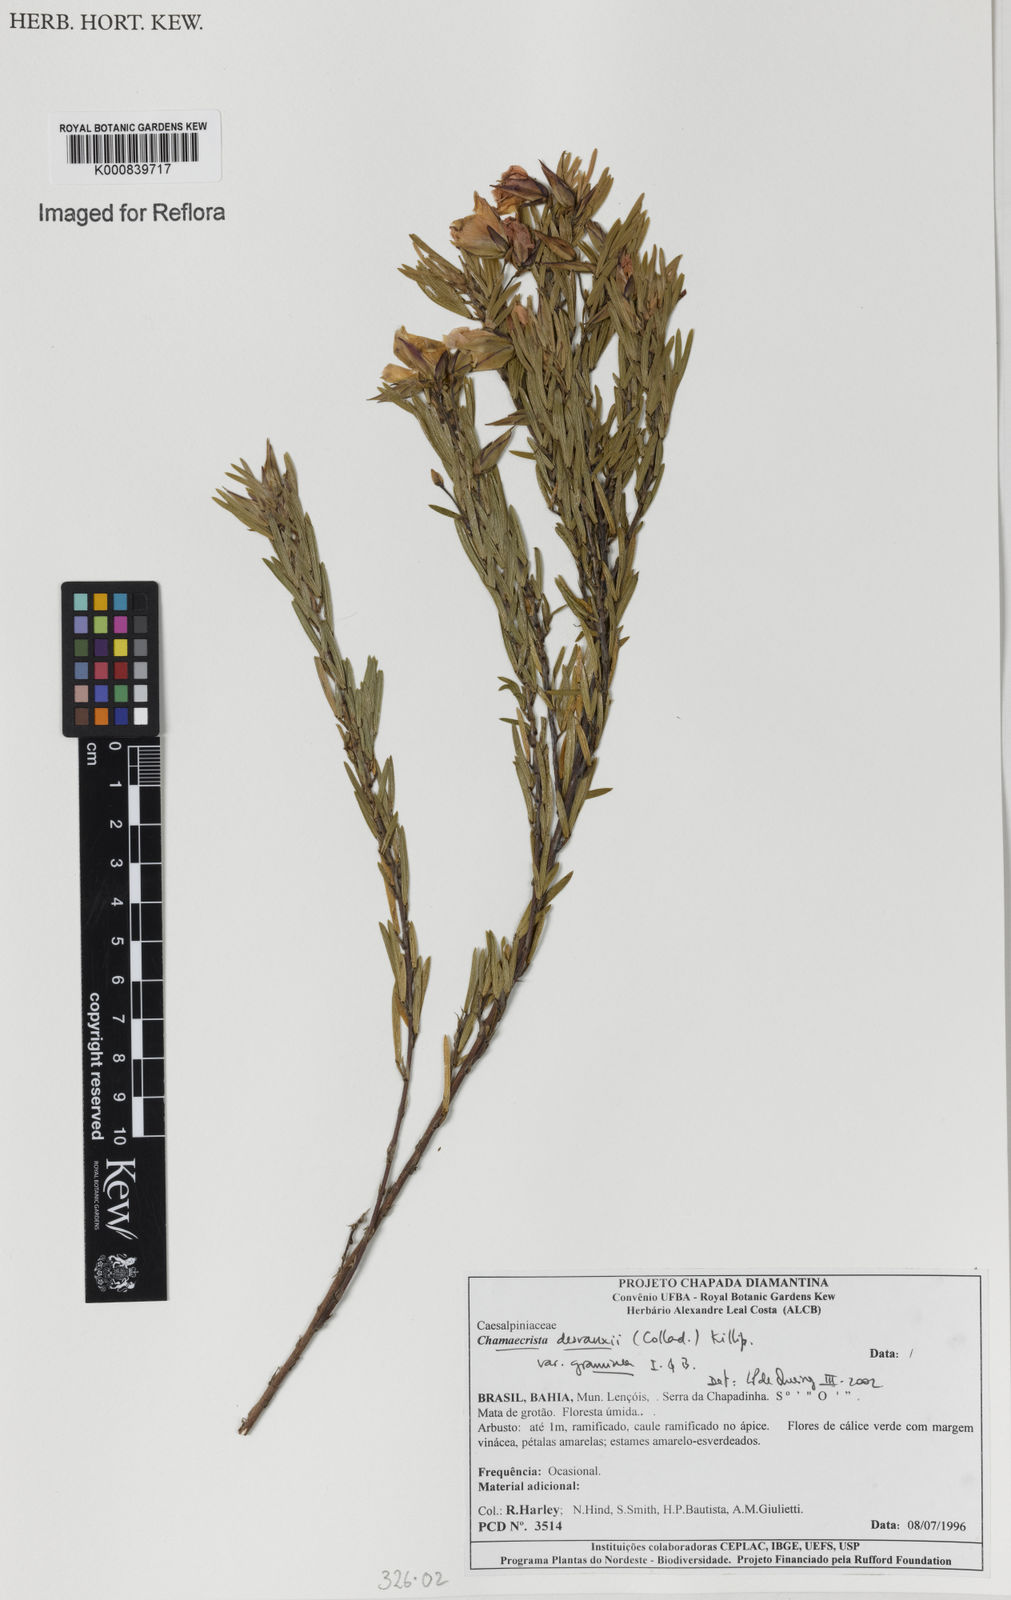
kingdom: Plantae
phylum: Tracheophyta
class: Magnoliopsida
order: Fabales
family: Fabaceae
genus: Chamaecrista
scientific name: Chamaecrista desvauxii
